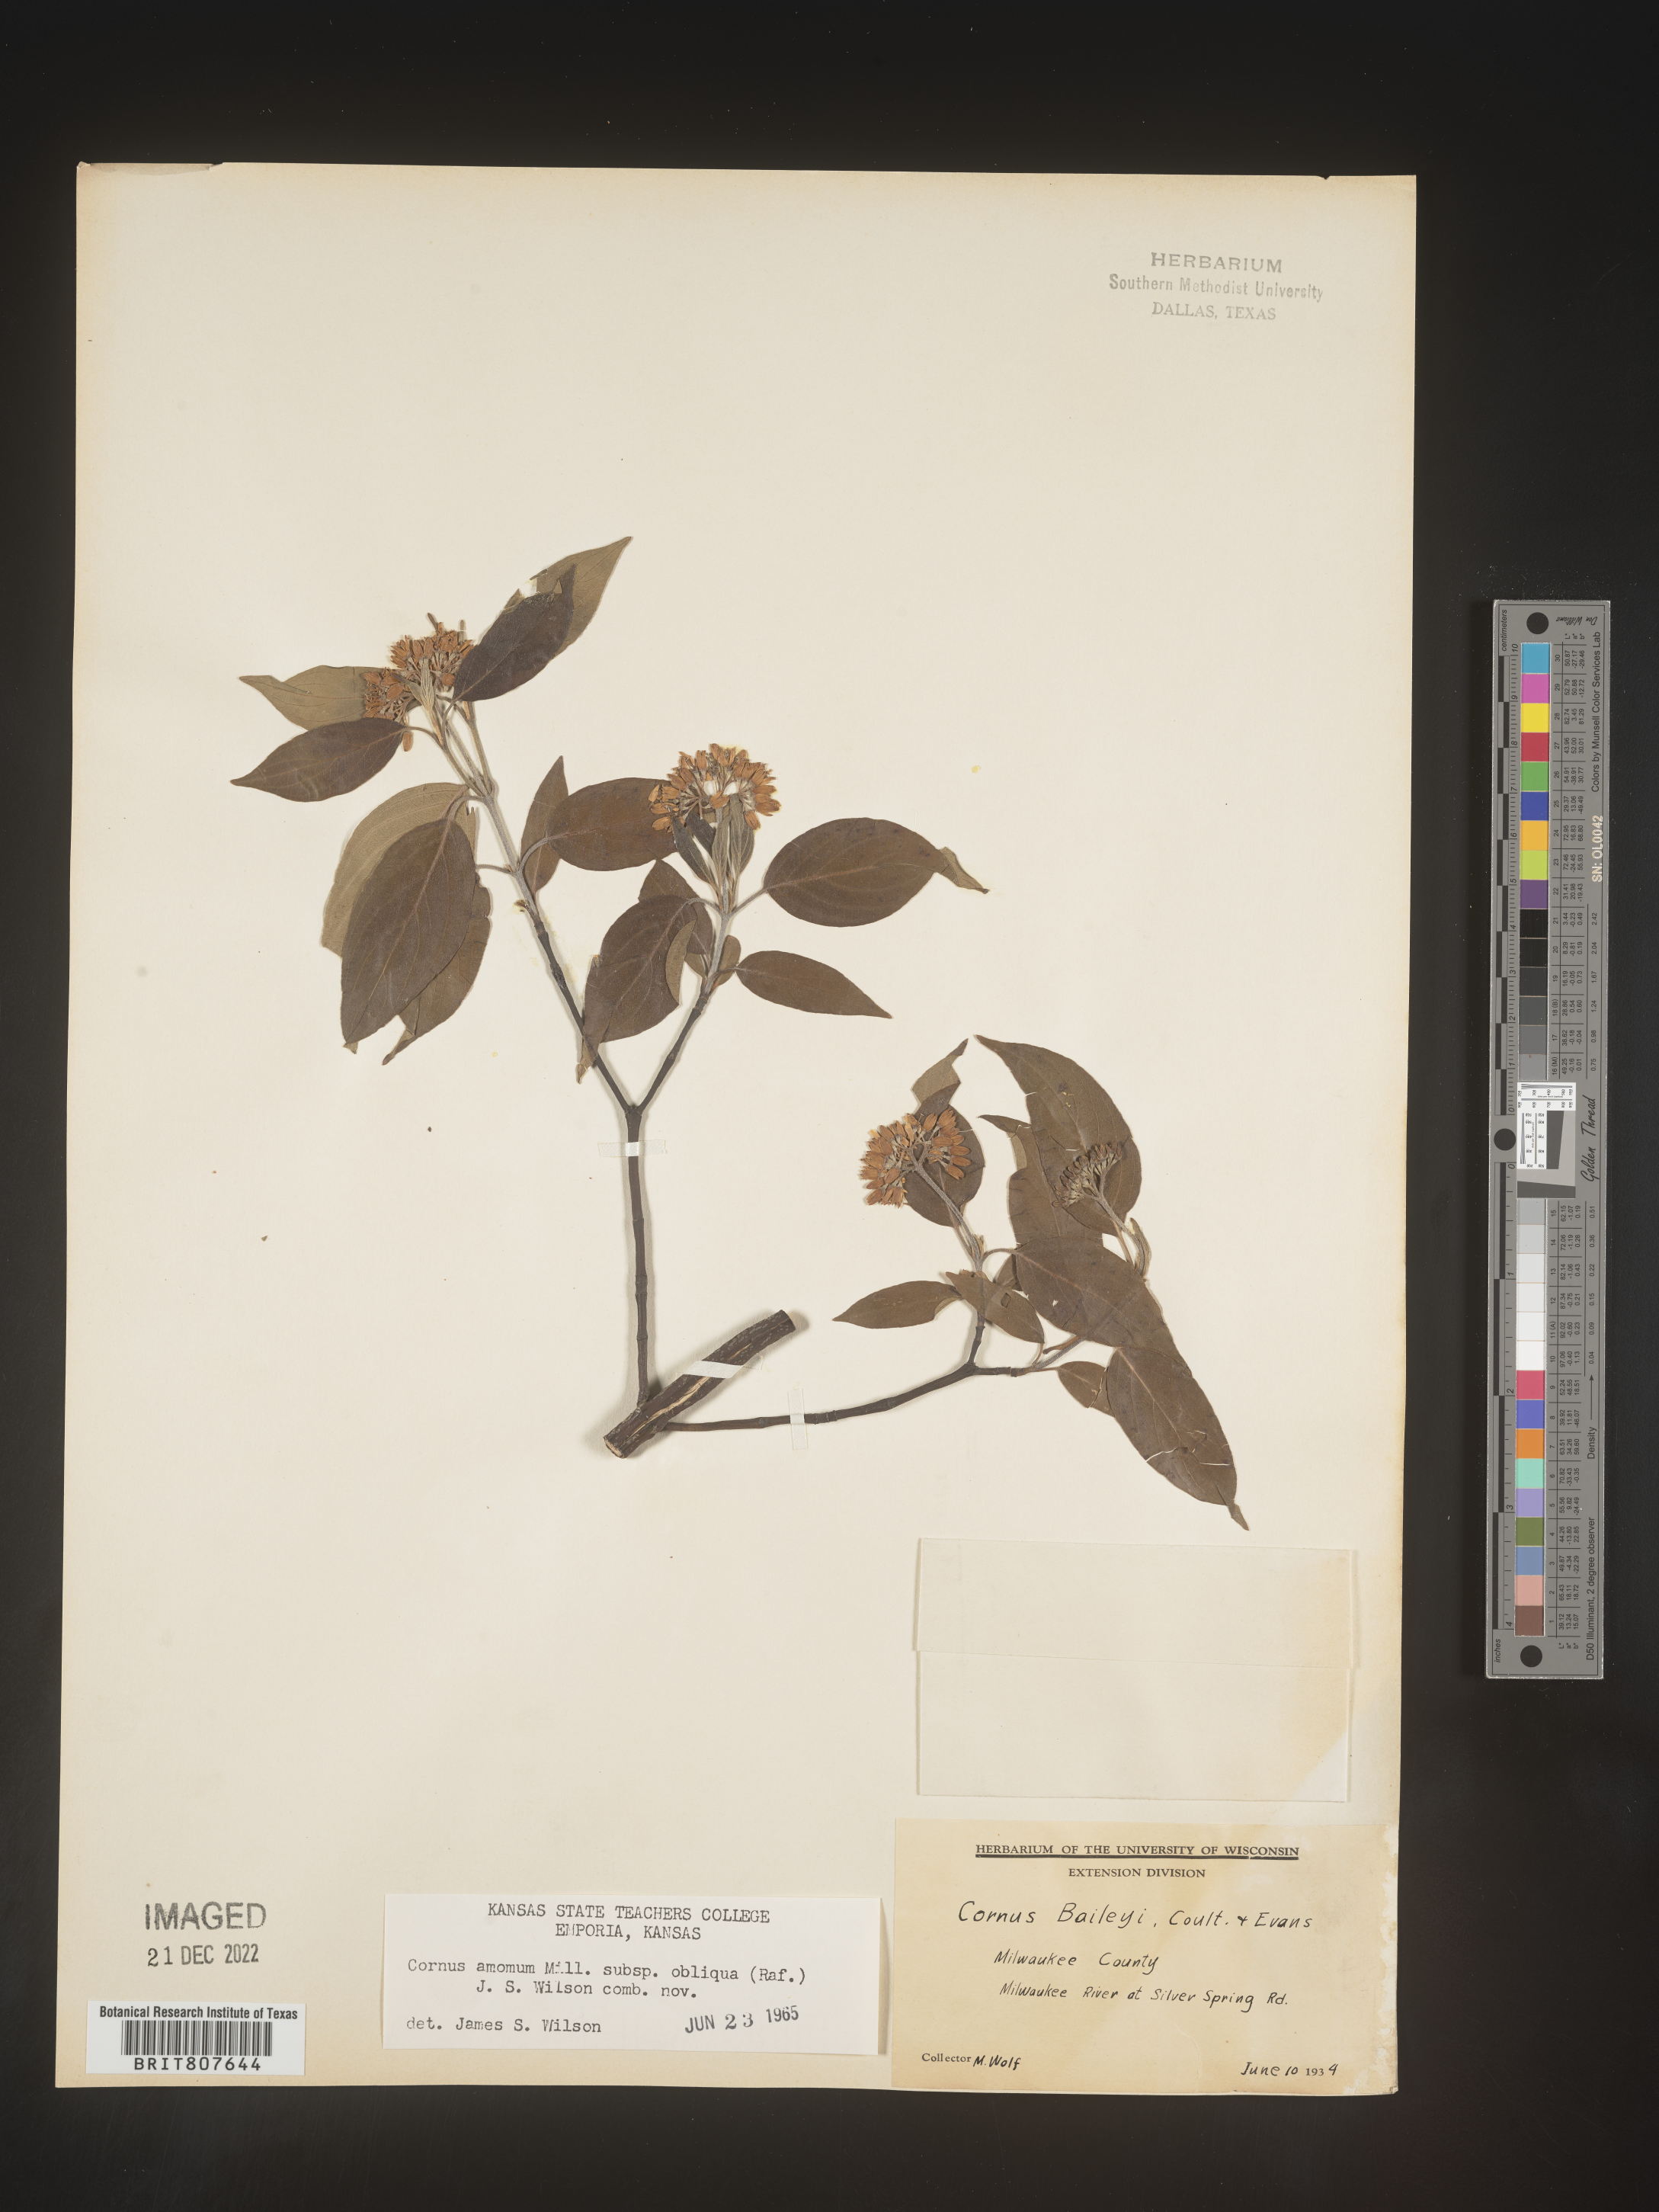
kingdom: Plantae
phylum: Tracheophyta
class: Magnoliopsida
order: Cornales
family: Cornaceae
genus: Cornus
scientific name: Cornus obliqua
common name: Pale dogwood
